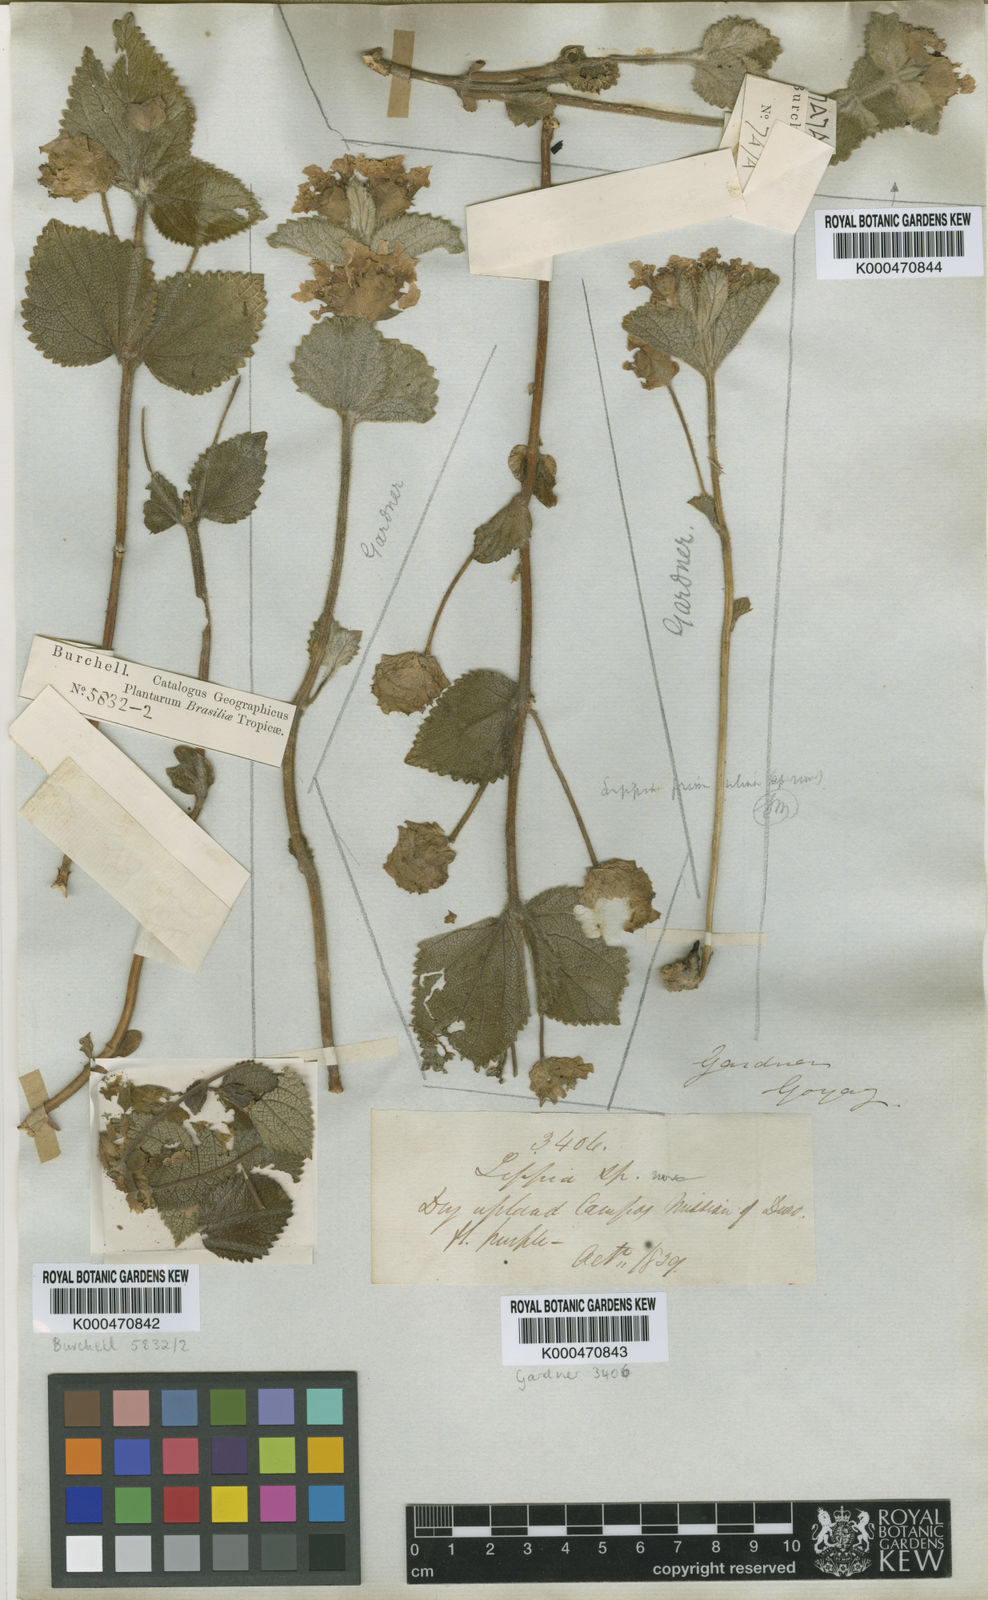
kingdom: Plantae
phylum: Tracheophyta
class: Magnoliopsida
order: Lamiales
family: Verbenaceae
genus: Lippia
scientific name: Lippia primulina
